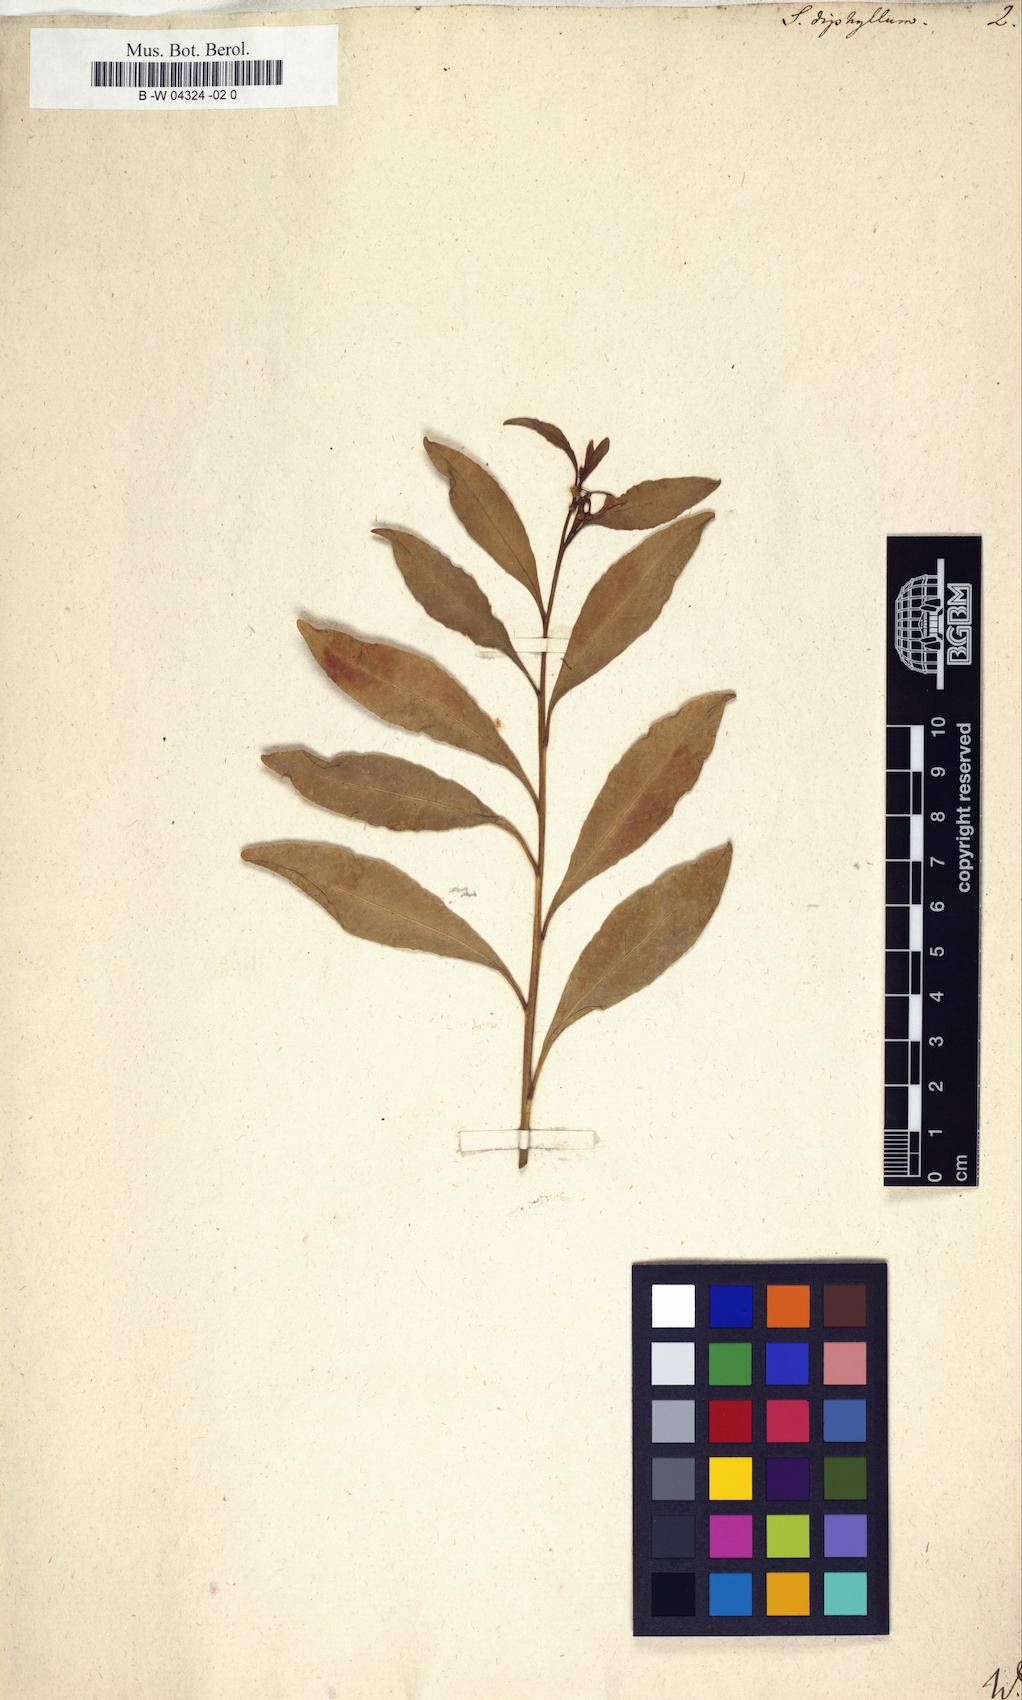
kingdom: Plantae
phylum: Tracheophyta
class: Magnoliopsida
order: Solanales
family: Solanaceae
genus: Solanum
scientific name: Solanum diphyllum
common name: Twoleaf nightshade
